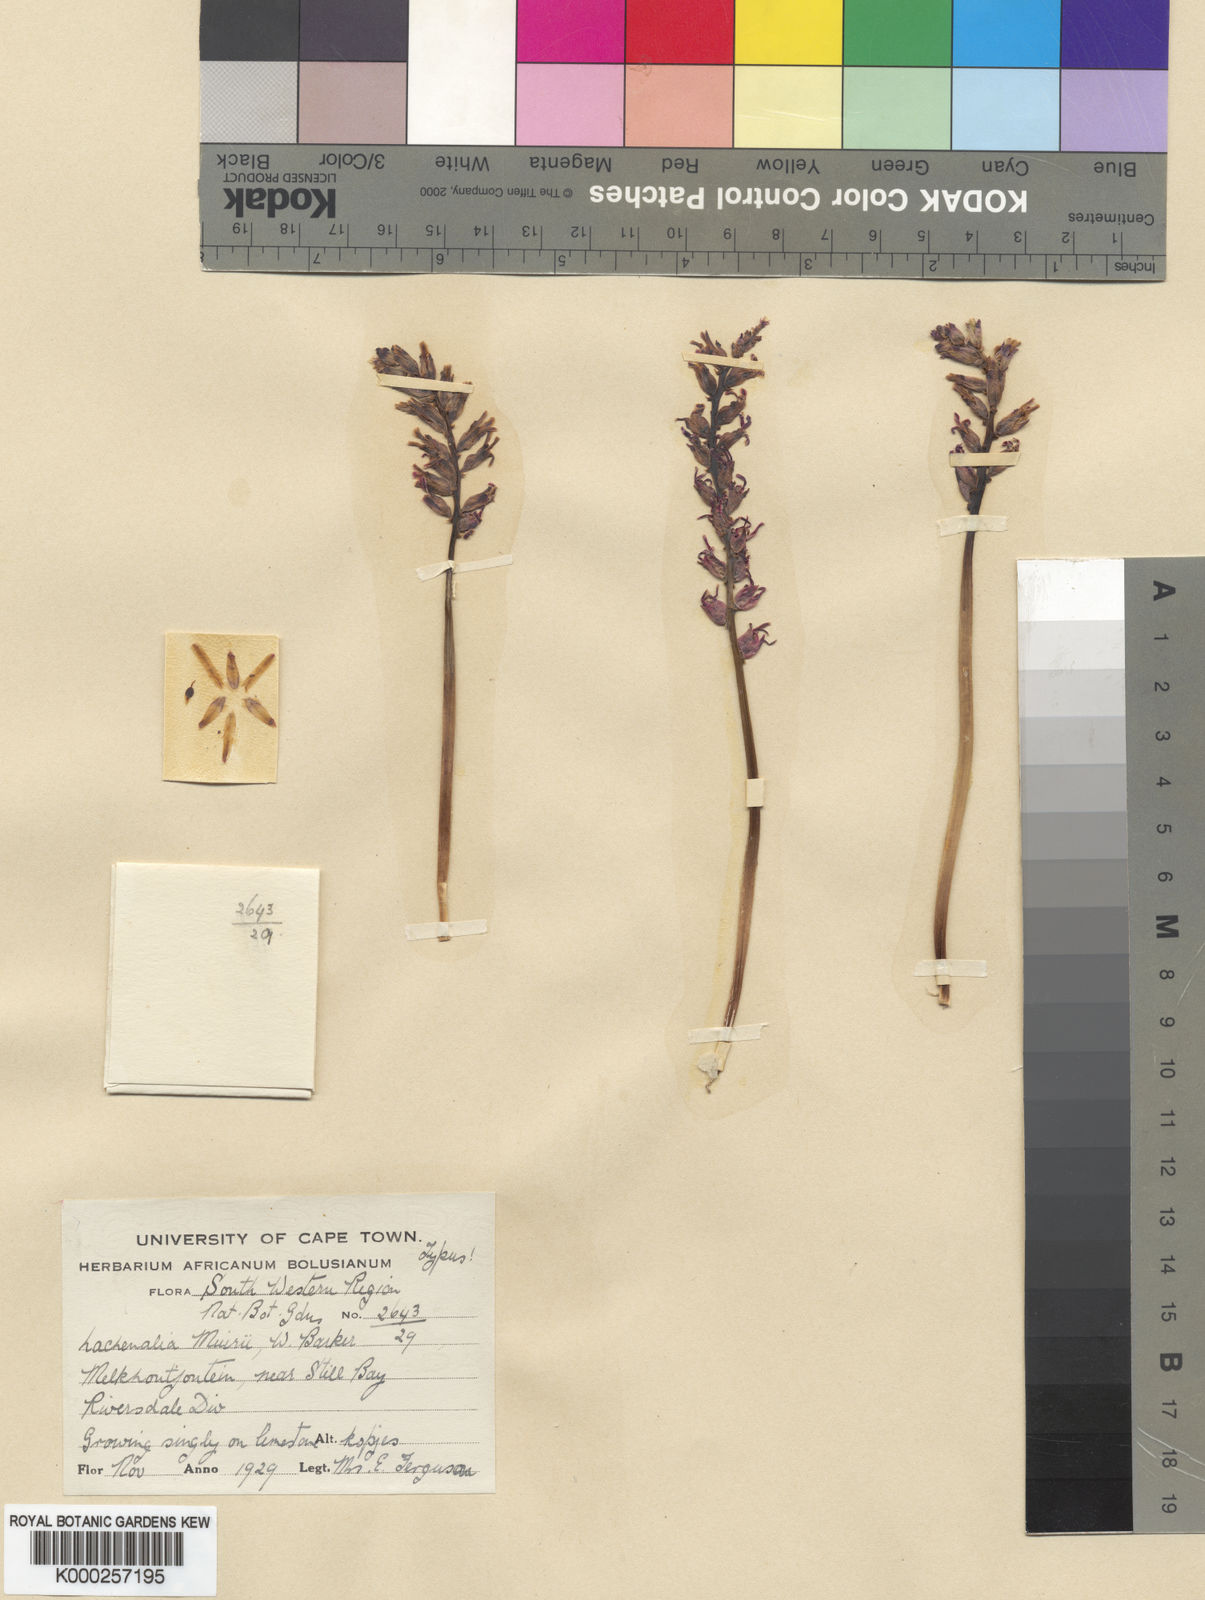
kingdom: Plantae
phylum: Tracheophyta
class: Liliopsida
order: Asparagales
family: Asparagaceae
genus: Lachenalia
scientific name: Lachenalia sessiliflora
